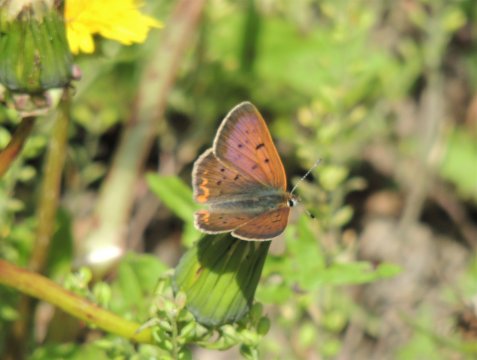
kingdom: Animalia
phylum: Arthropoda
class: Insecta
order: Lepidoptera
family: Sesiidae
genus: Sesia
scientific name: Sesia Lycaena helloides
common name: Purplish Copper
